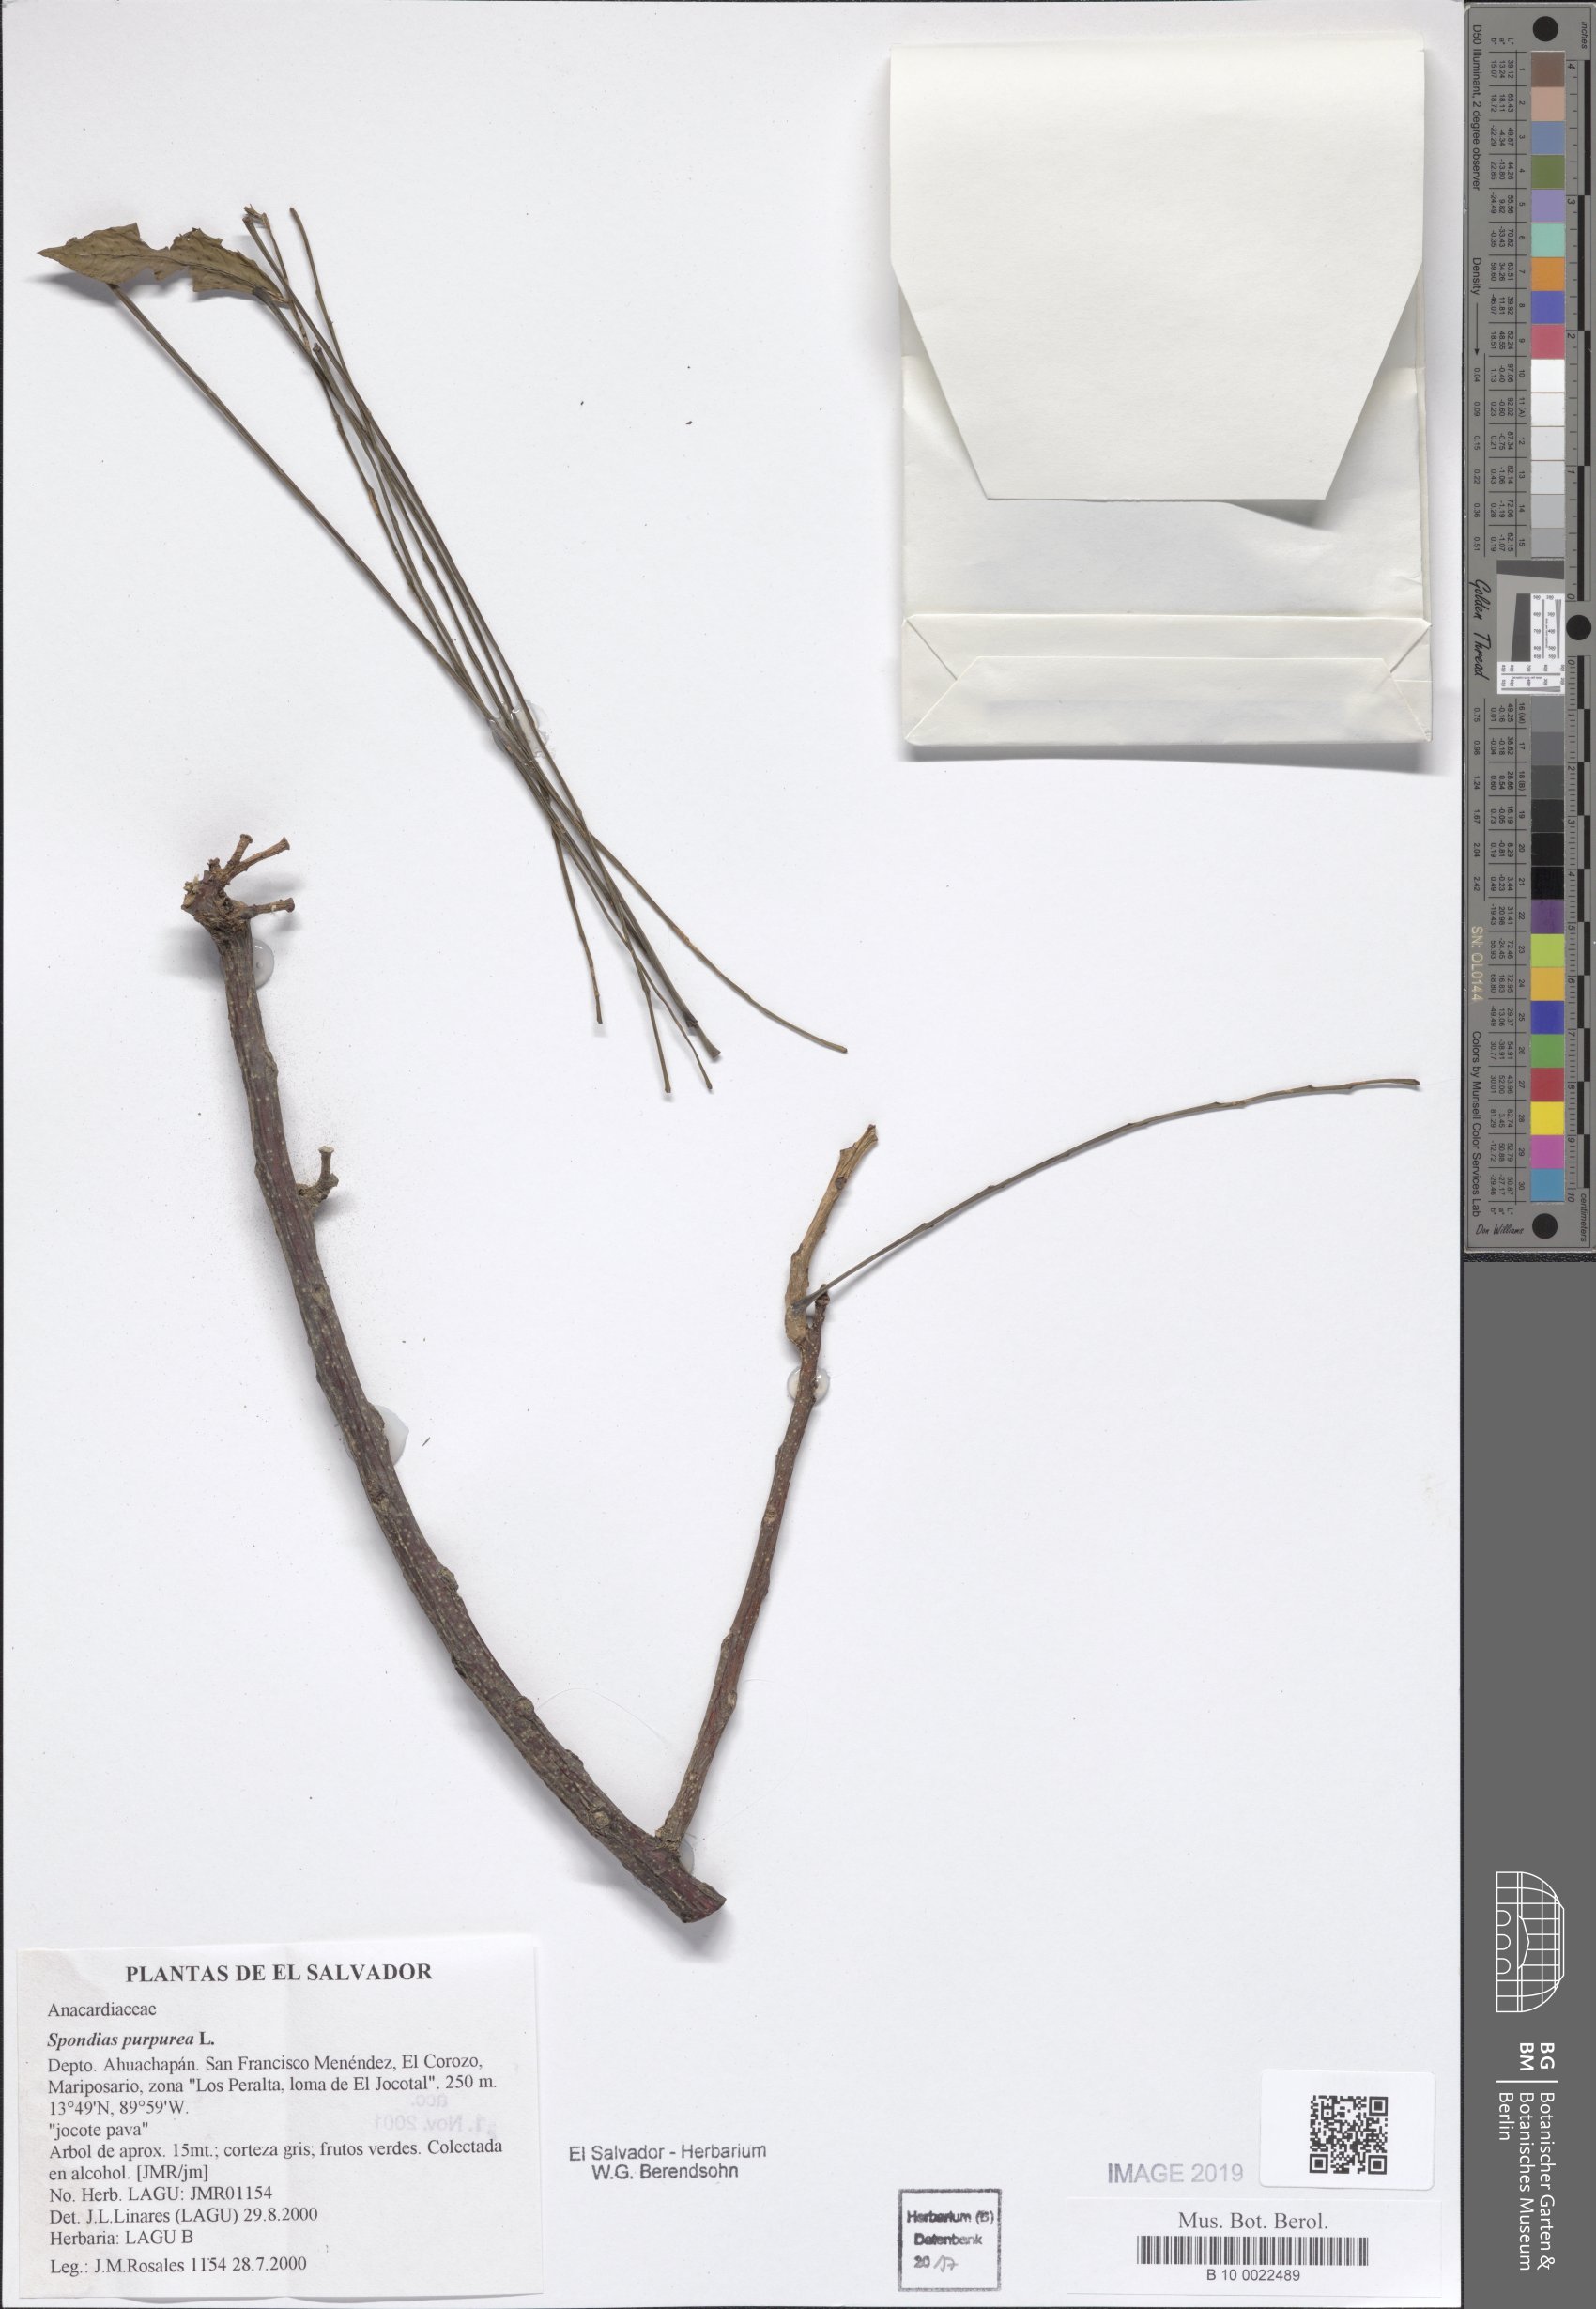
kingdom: Plantae
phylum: Tracheophyta
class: Magnoliopsida
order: Sapindales
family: Anacardiaceae
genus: Spondias
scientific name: Spondias purpurea
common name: Purple mombin
